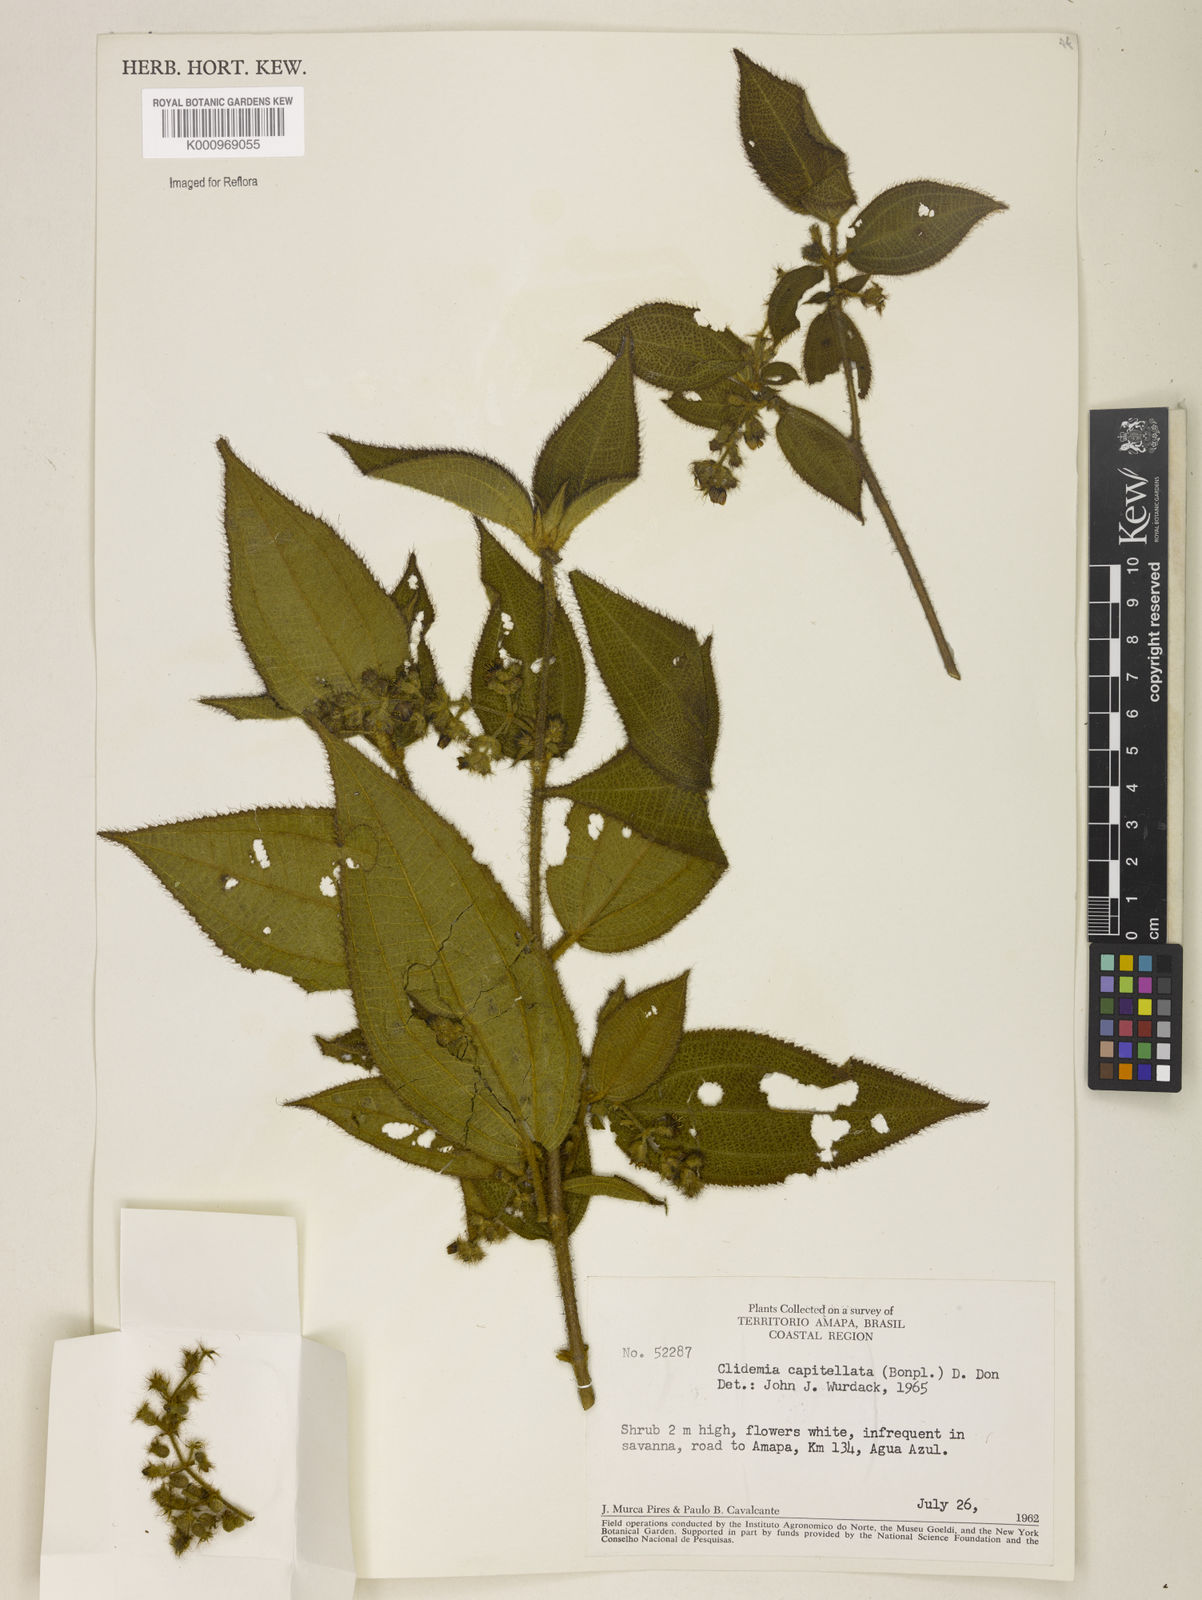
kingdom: Plantae
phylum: Tracheophyta
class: Magnoliopsida
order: Myrtales
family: Melastomataceae
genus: Miconia
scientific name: Miconia dependens
